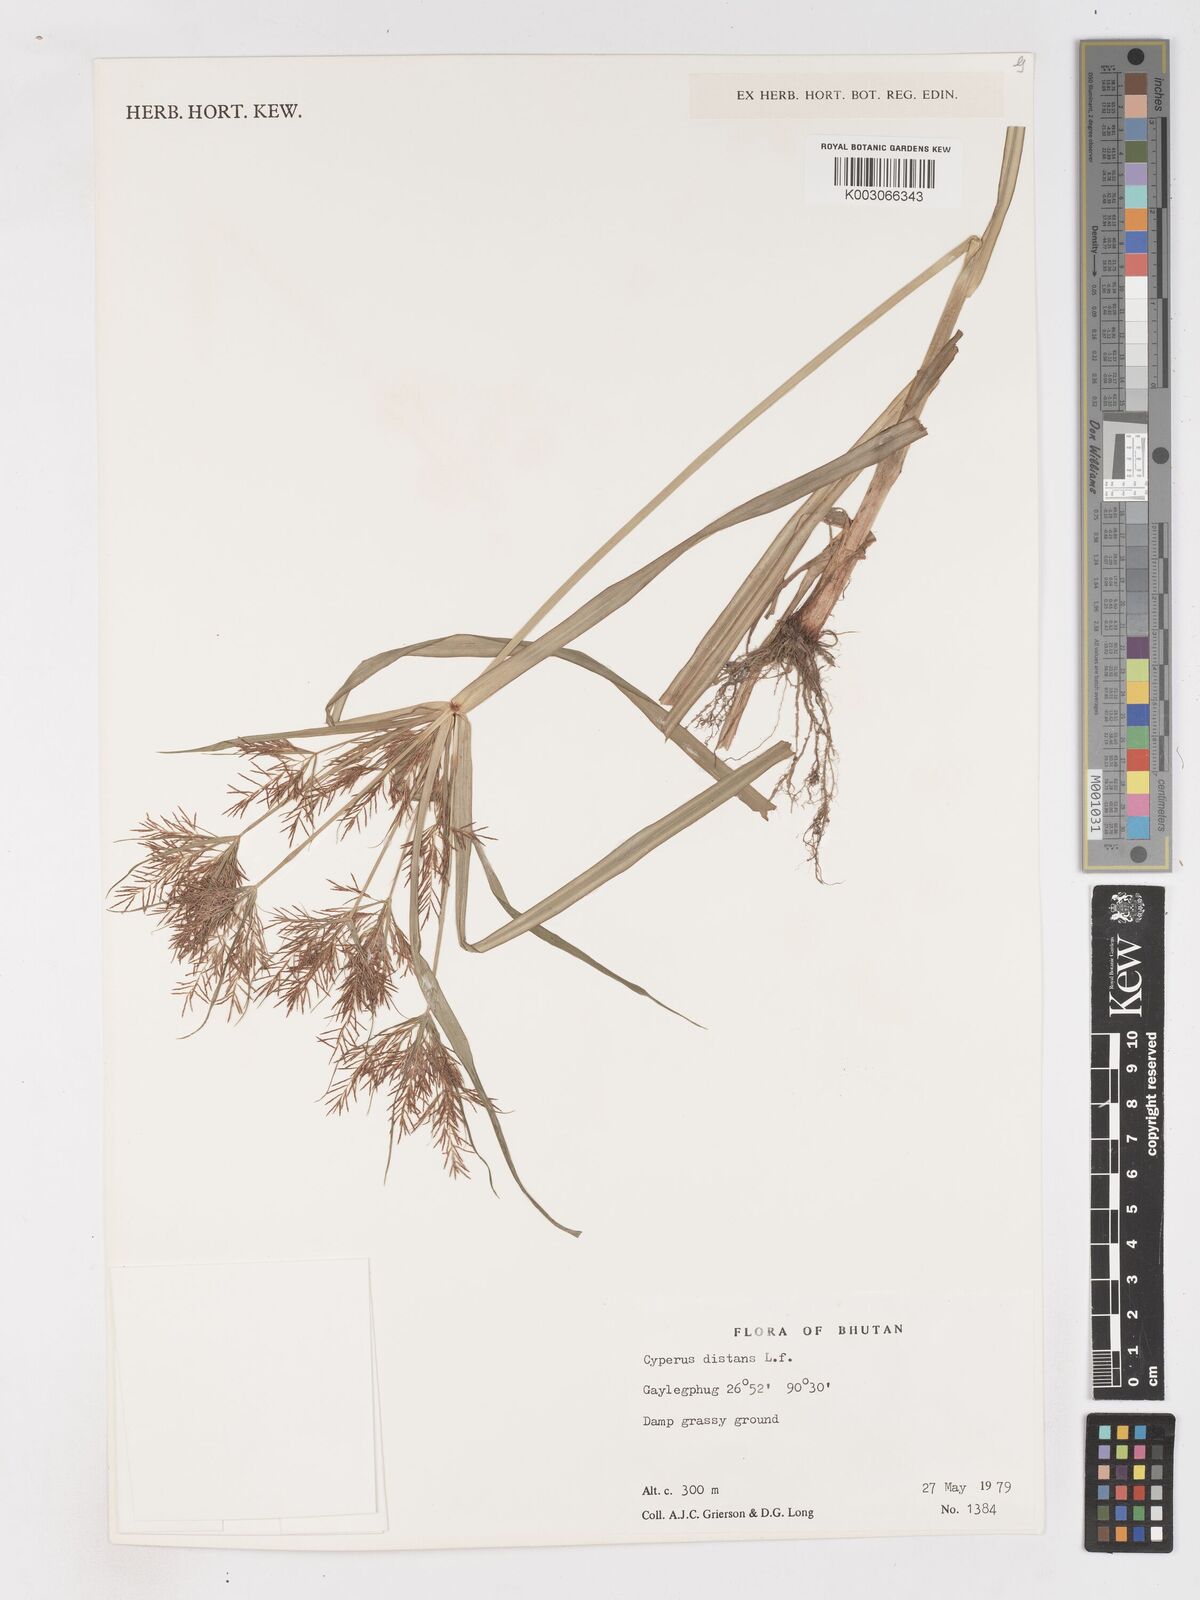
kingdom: Plantae
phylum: Tracheophyta
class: Liliopsida
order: Poales
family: Cyperaceae
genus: Cyperus
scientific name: Cyperus distans
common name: Slender cyperus
